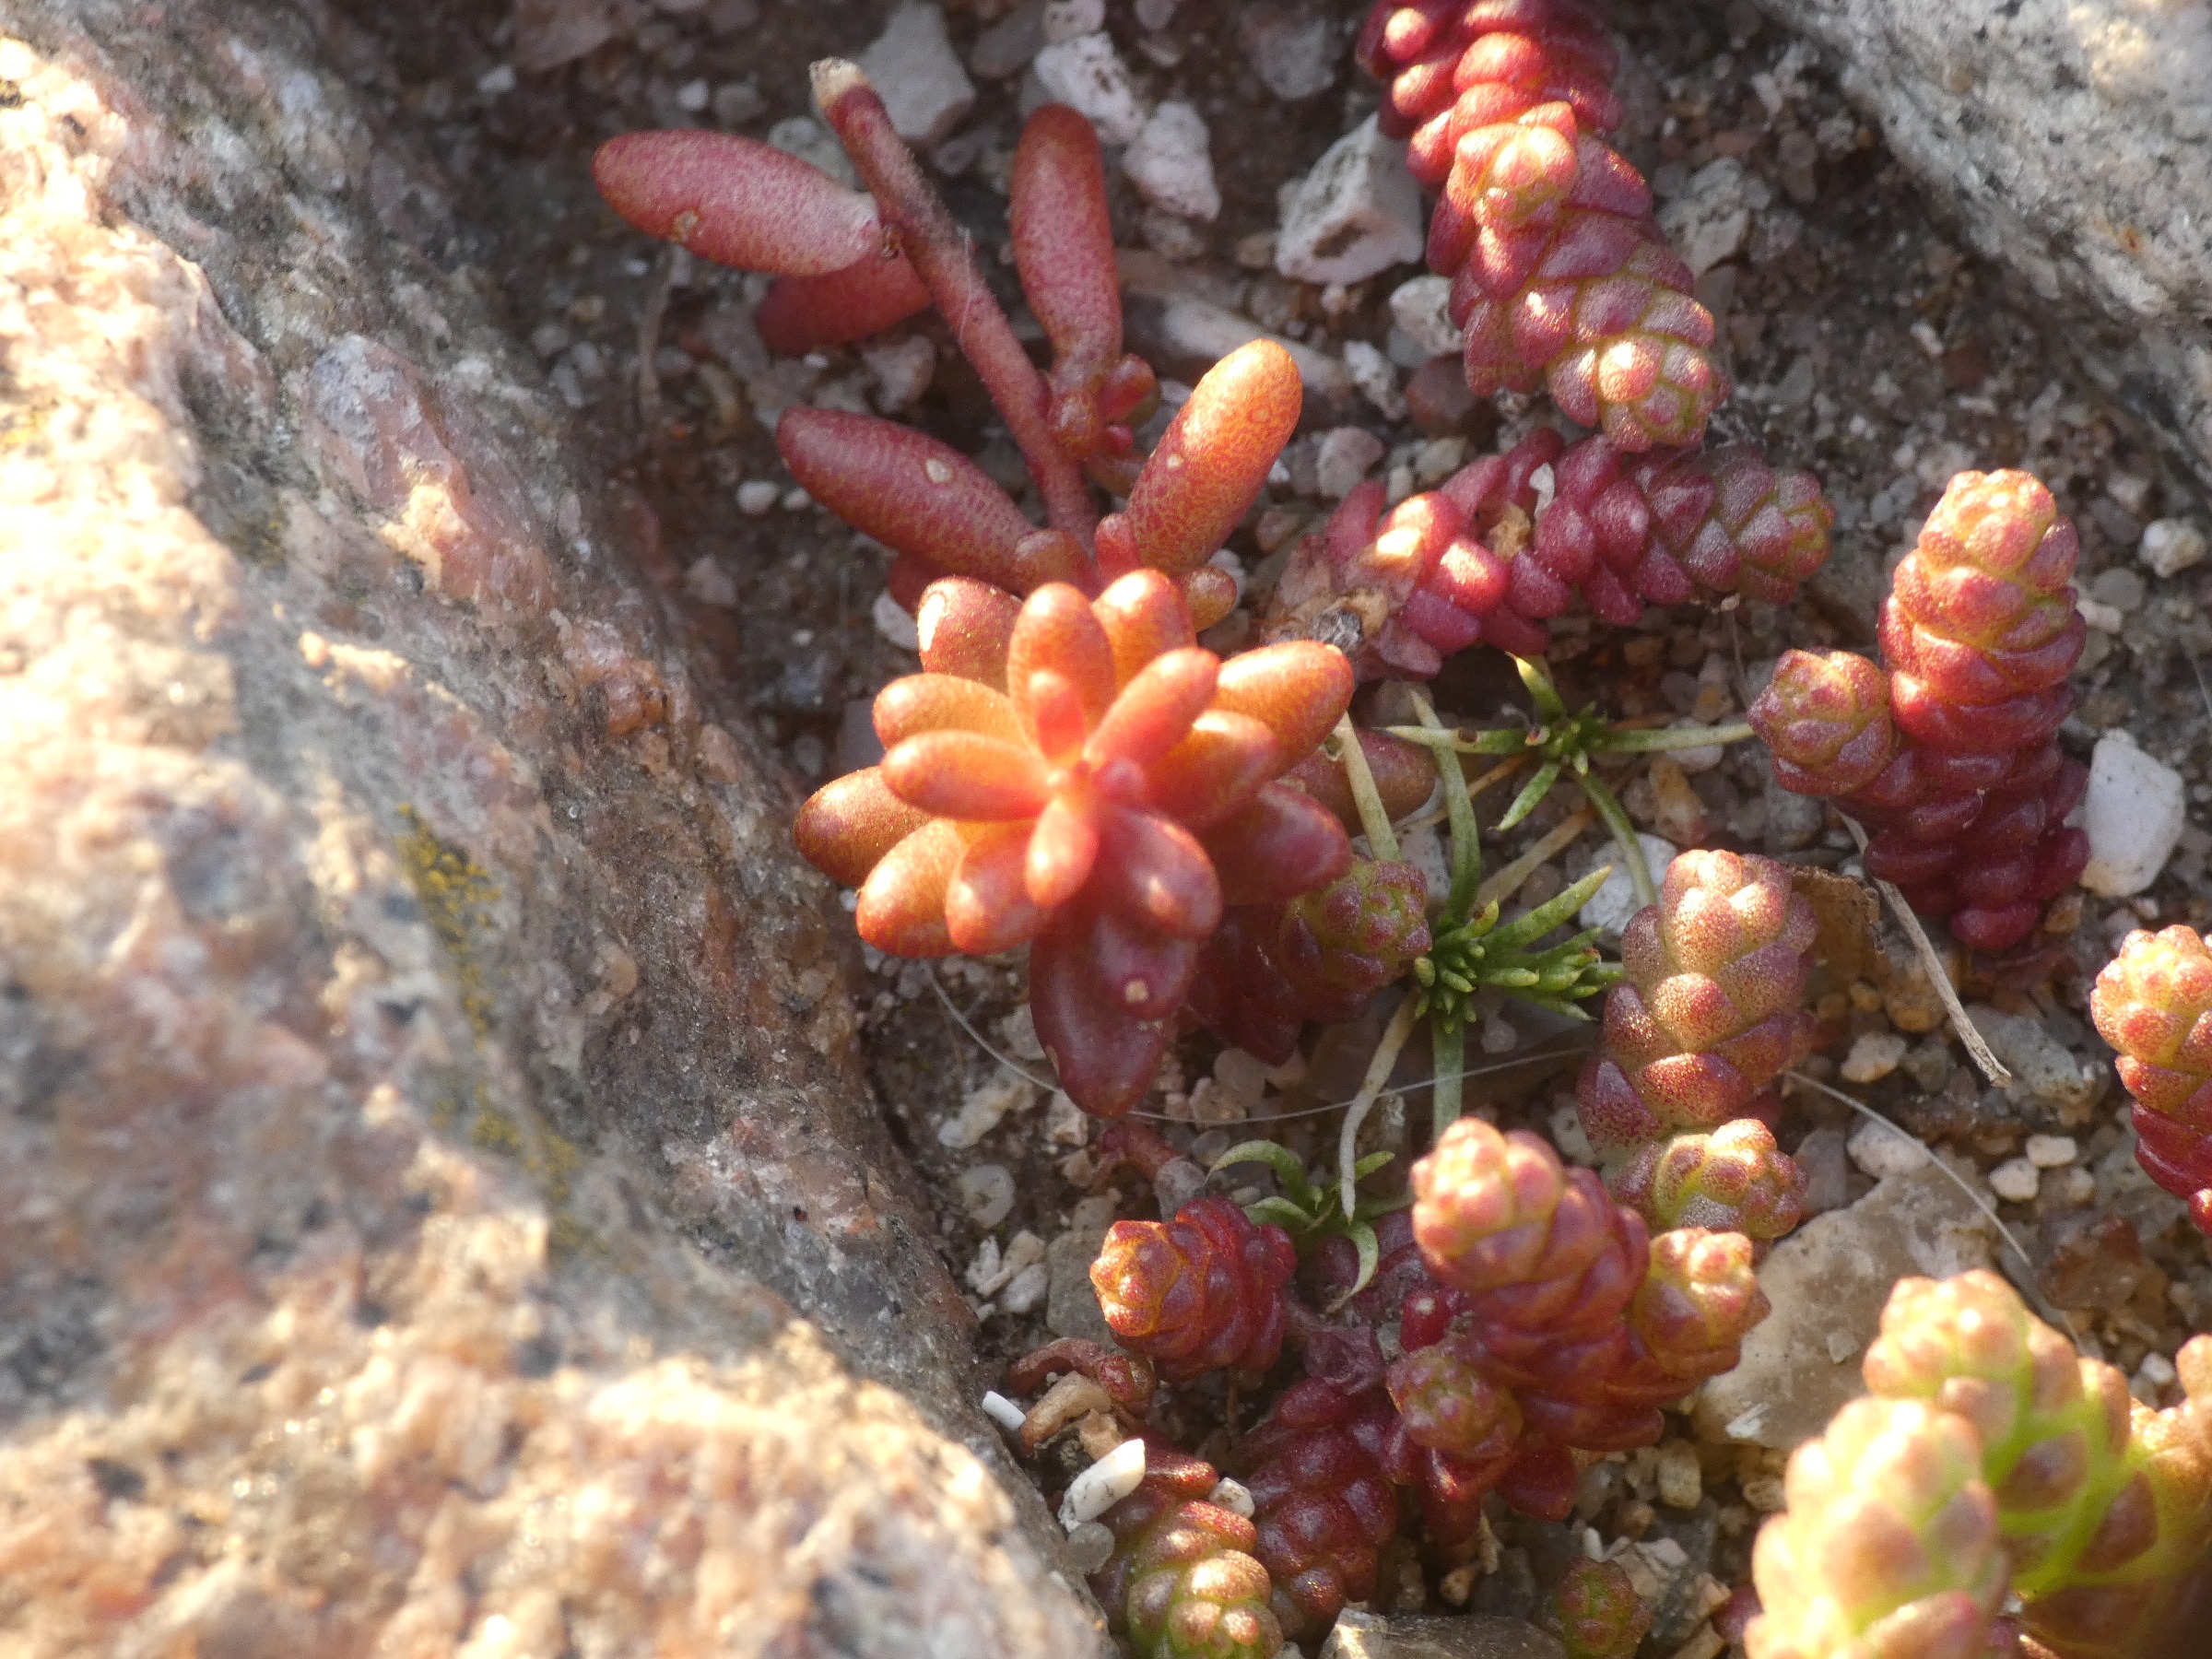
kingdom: Plantae
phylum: Tracheophyta
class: Magnoliopsida
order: Saxifragales
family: Crassulaceae
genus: Sedum
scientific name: Sedum acre
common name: Bidende stenurt
